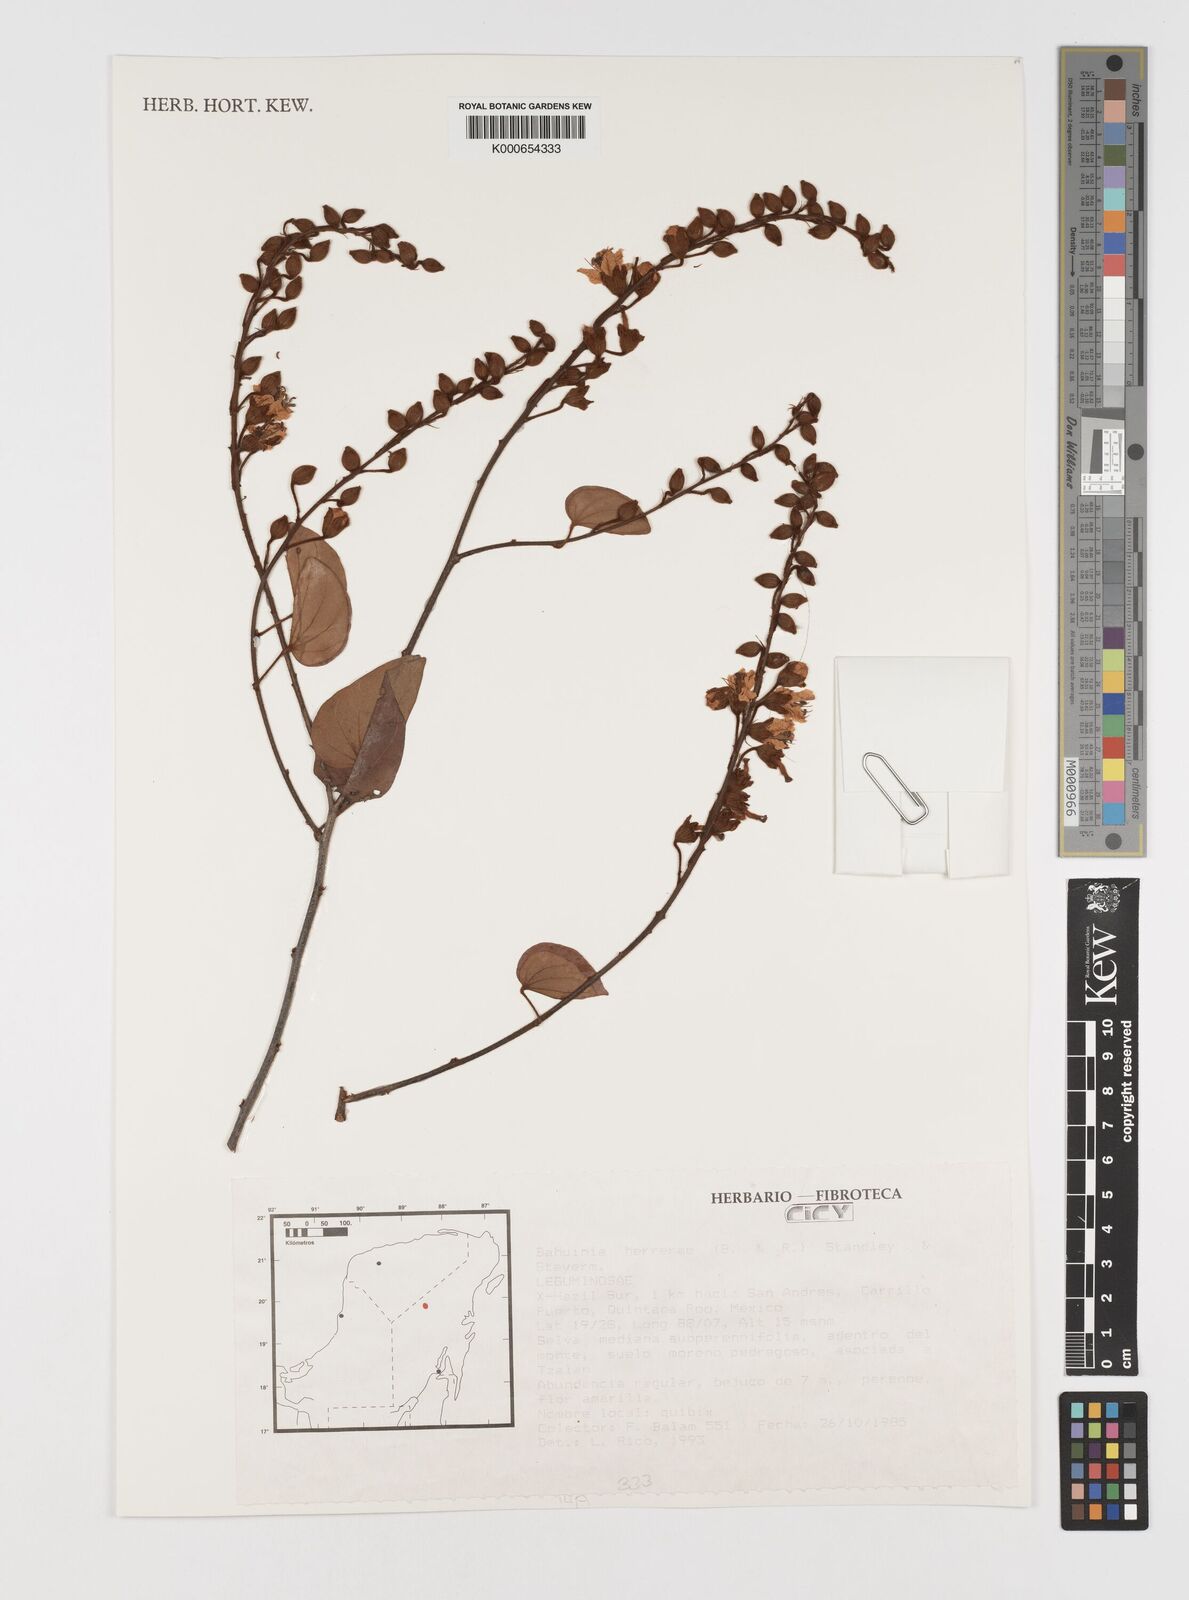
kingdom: Plantae
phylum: Tracheophyta
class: Magnoliopsida
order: Fabales
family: Fabaceae
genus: Schnella
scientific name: Schnella herrerae
